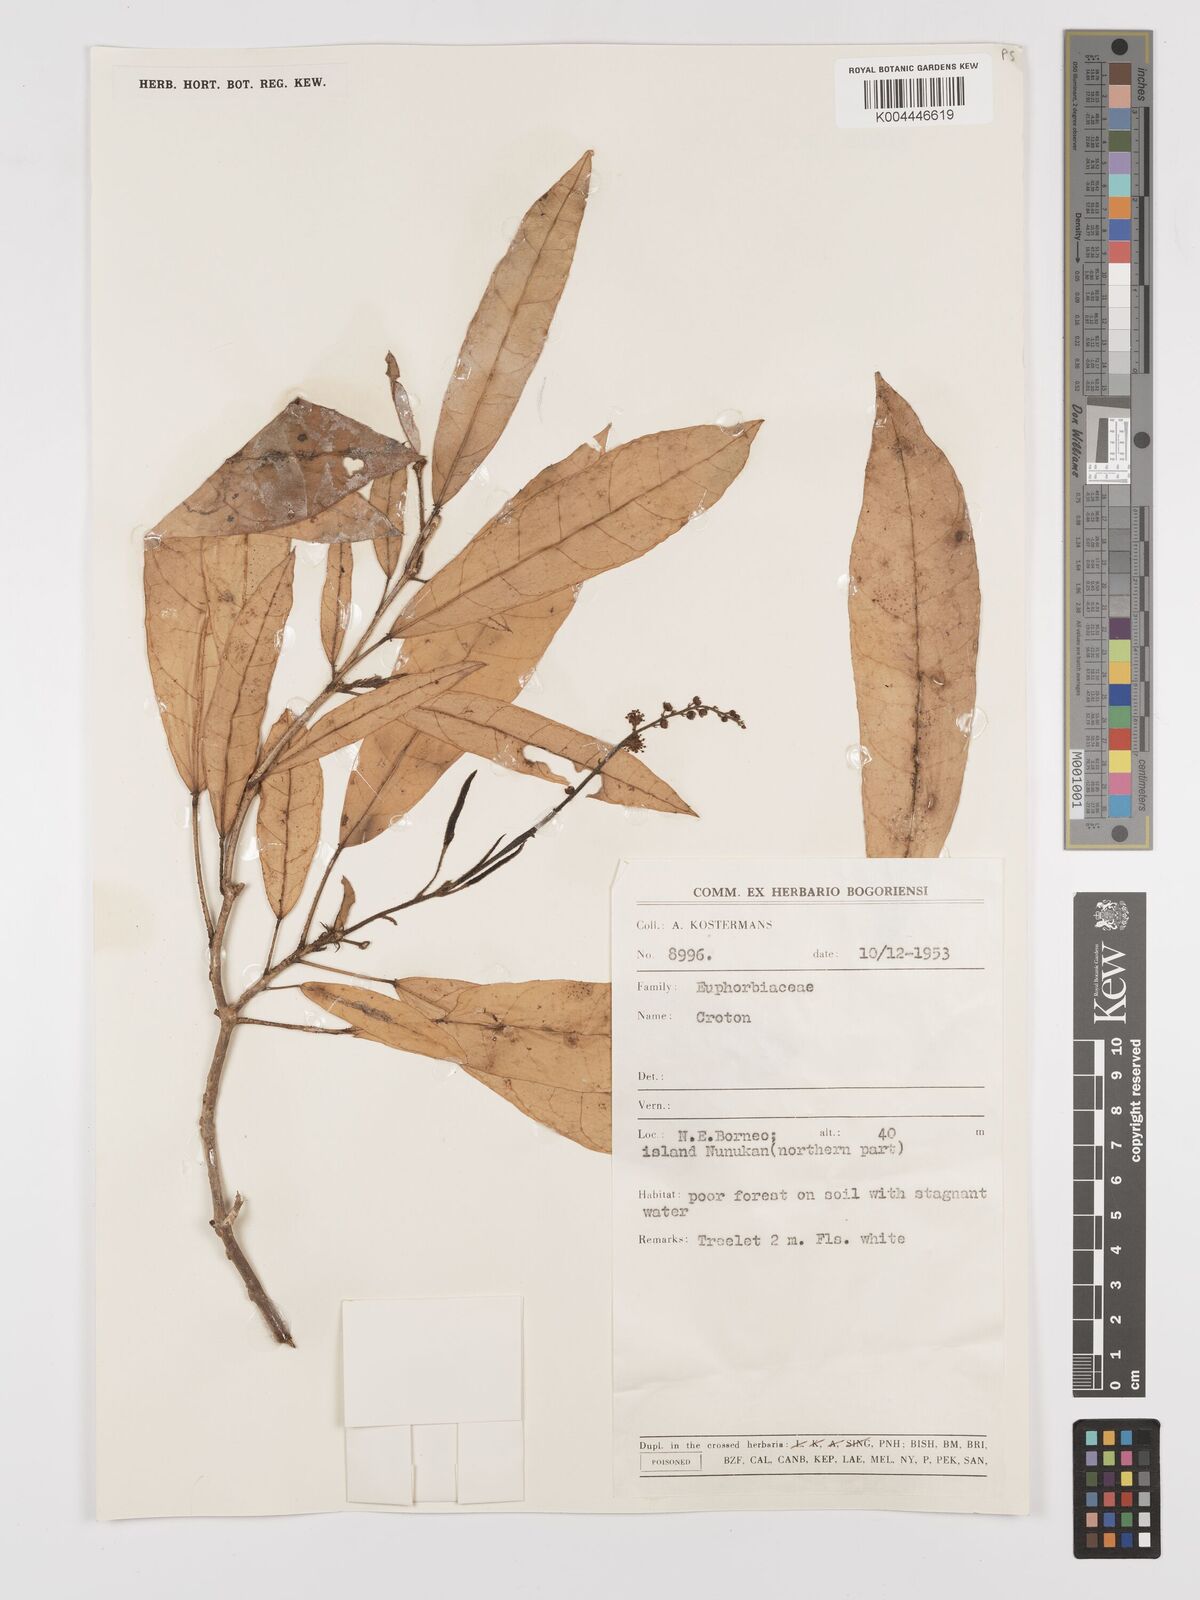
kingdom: Plantae
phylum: Tracheophyta
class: Magnoliopsida
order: Malpighiales
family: Euphorbiaceae
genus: Croton
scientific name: Croton borneensis
